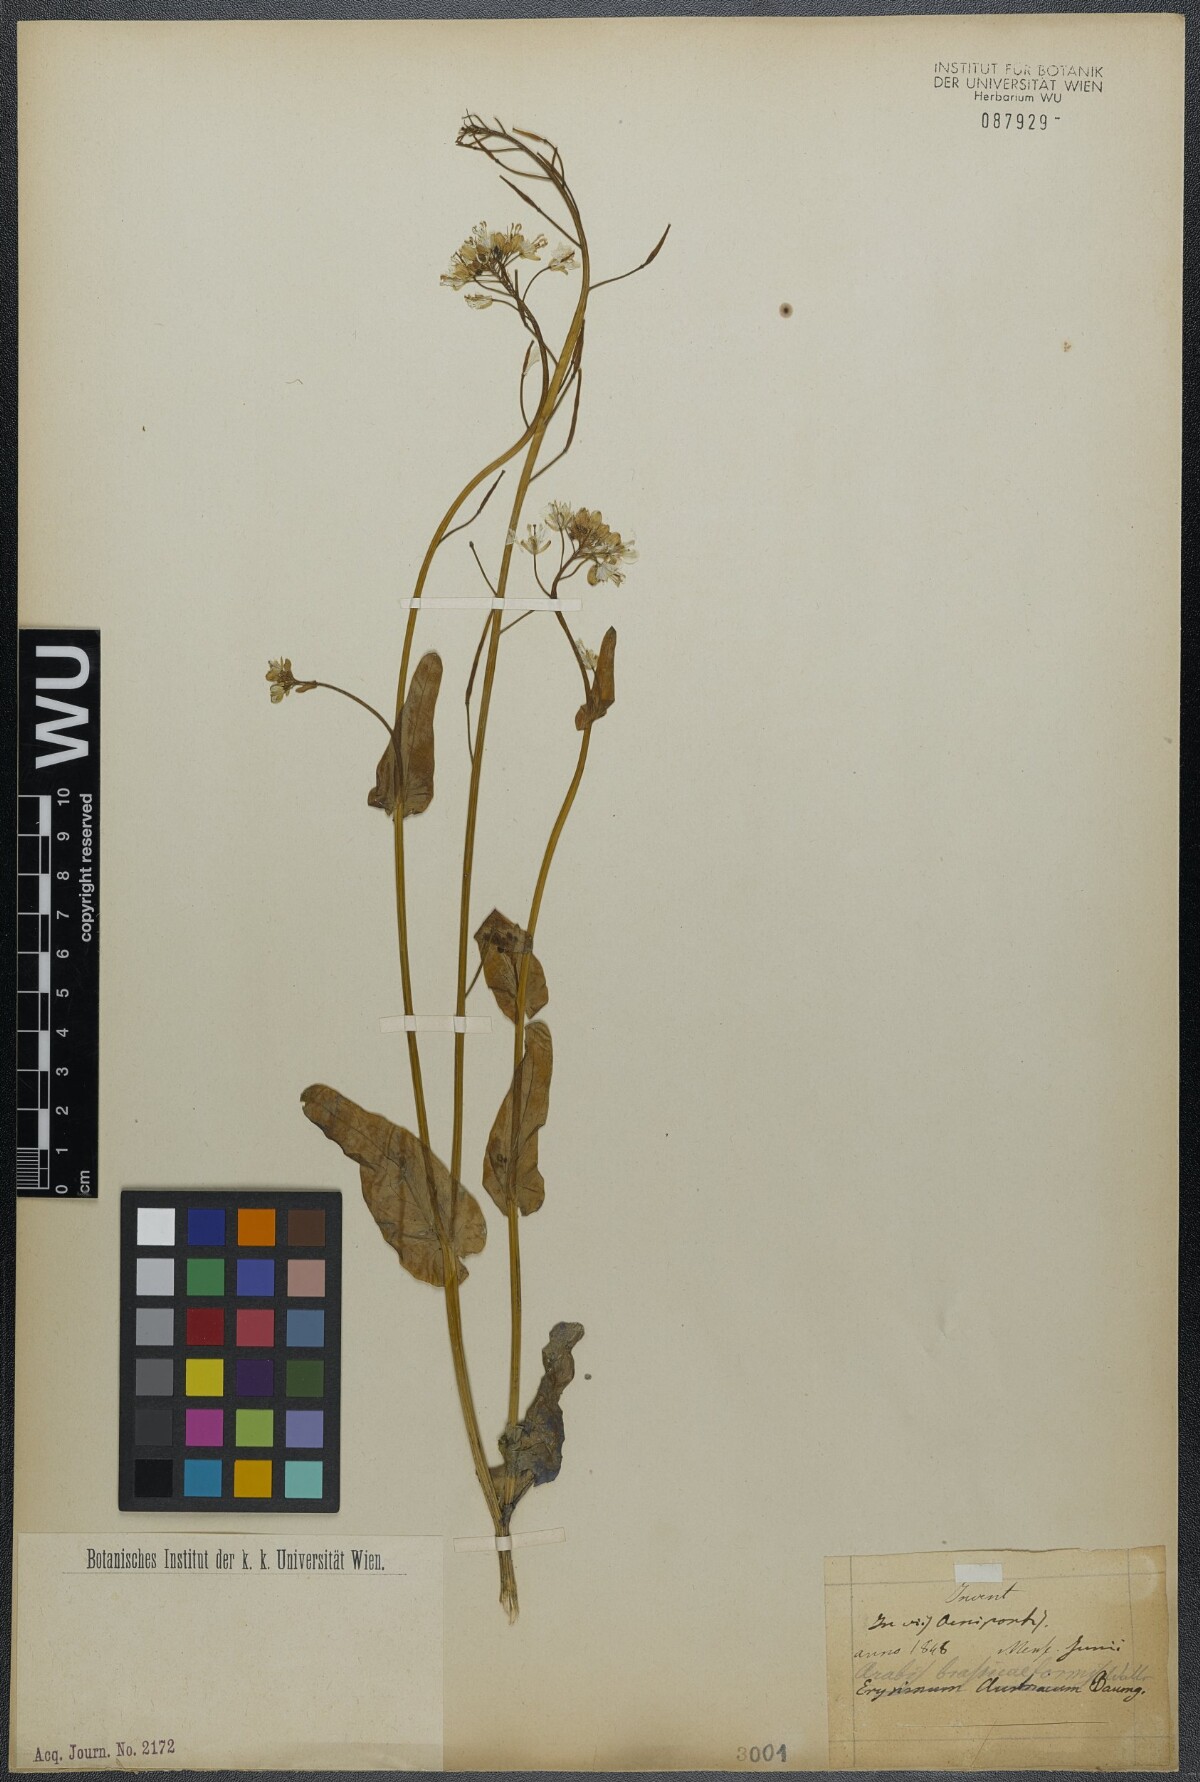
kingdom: Plantae
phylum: Tracheophyta
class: Magnoliopsida
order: Brassicales
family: Brassicaceae
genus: Fourraea
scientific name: Fourraea alpina
